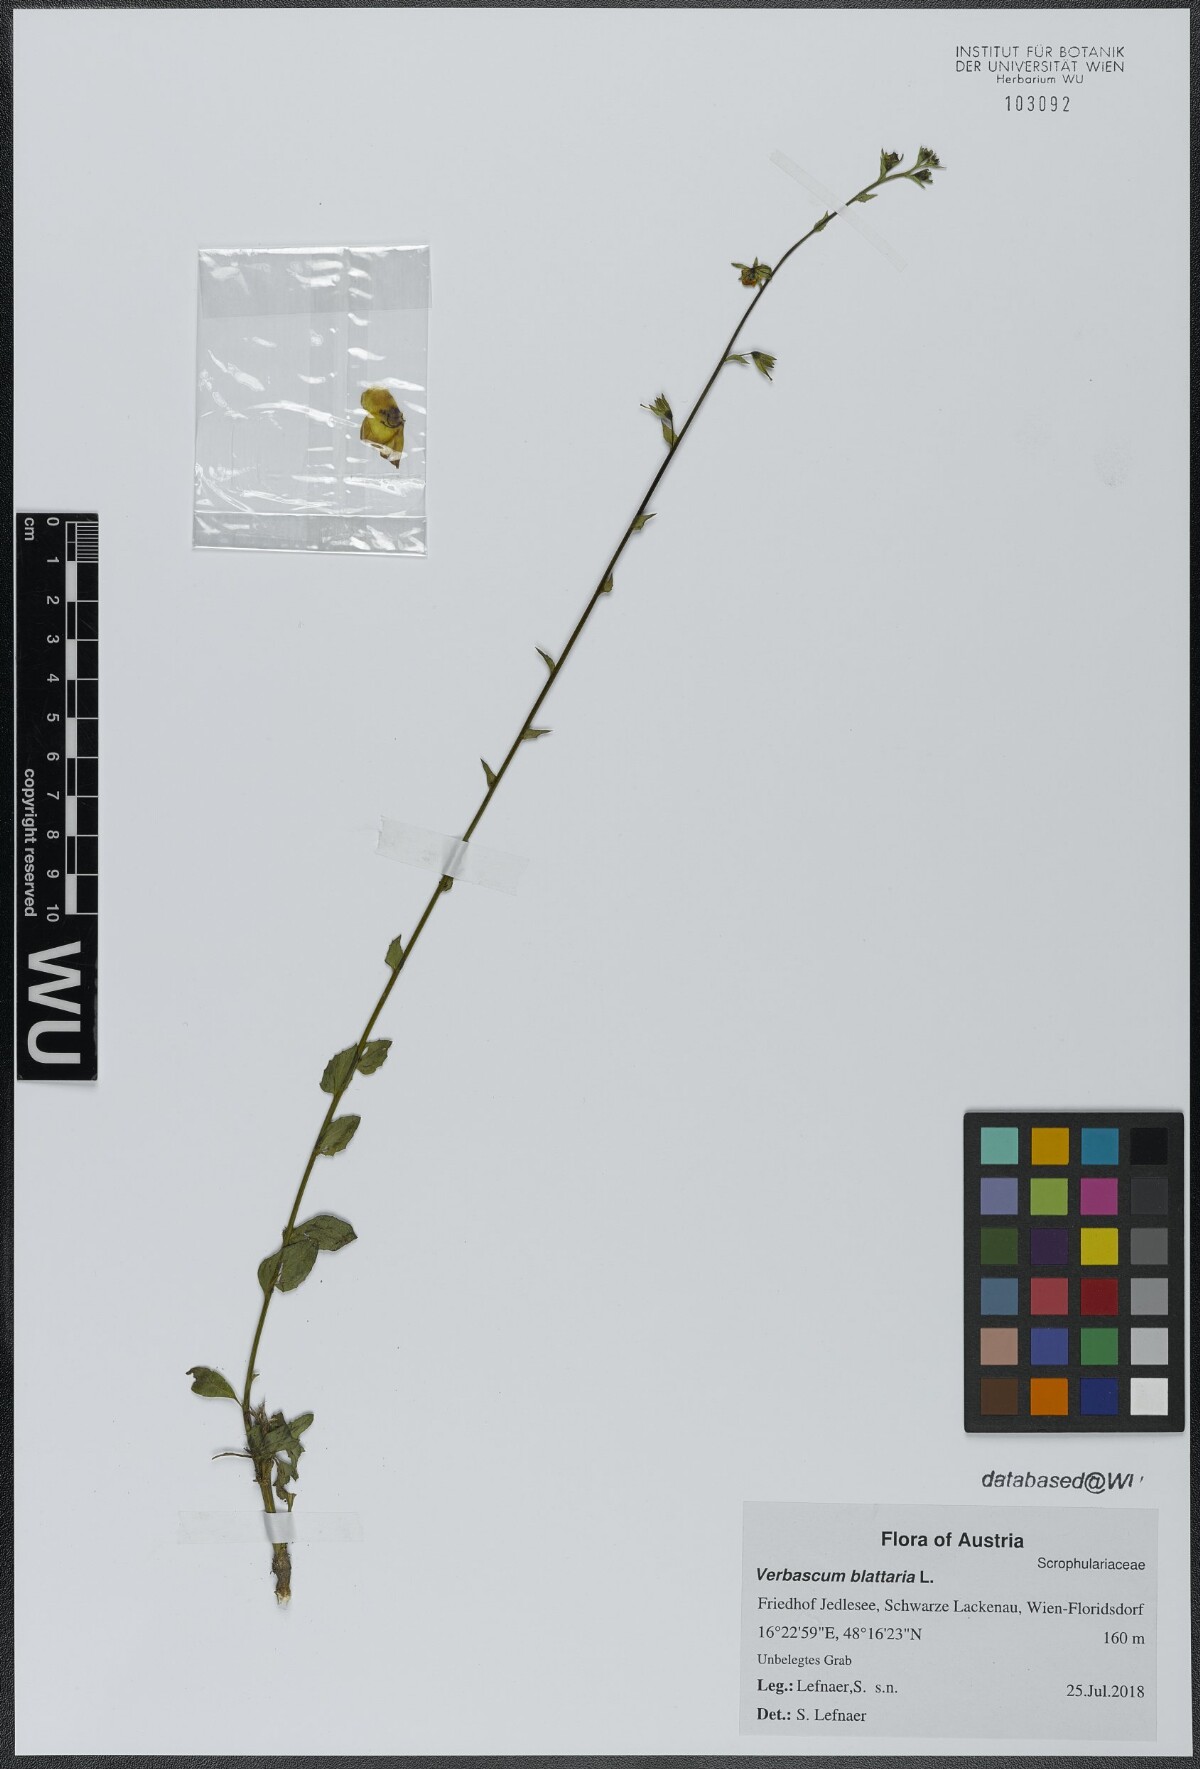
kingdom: Plantae
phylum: Tracheophyta
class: Magnoliopsida
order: Lamiales
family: Scrophulariaceae
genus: Verbascum
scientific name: Verbascum blattaria
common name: Moth mullein
